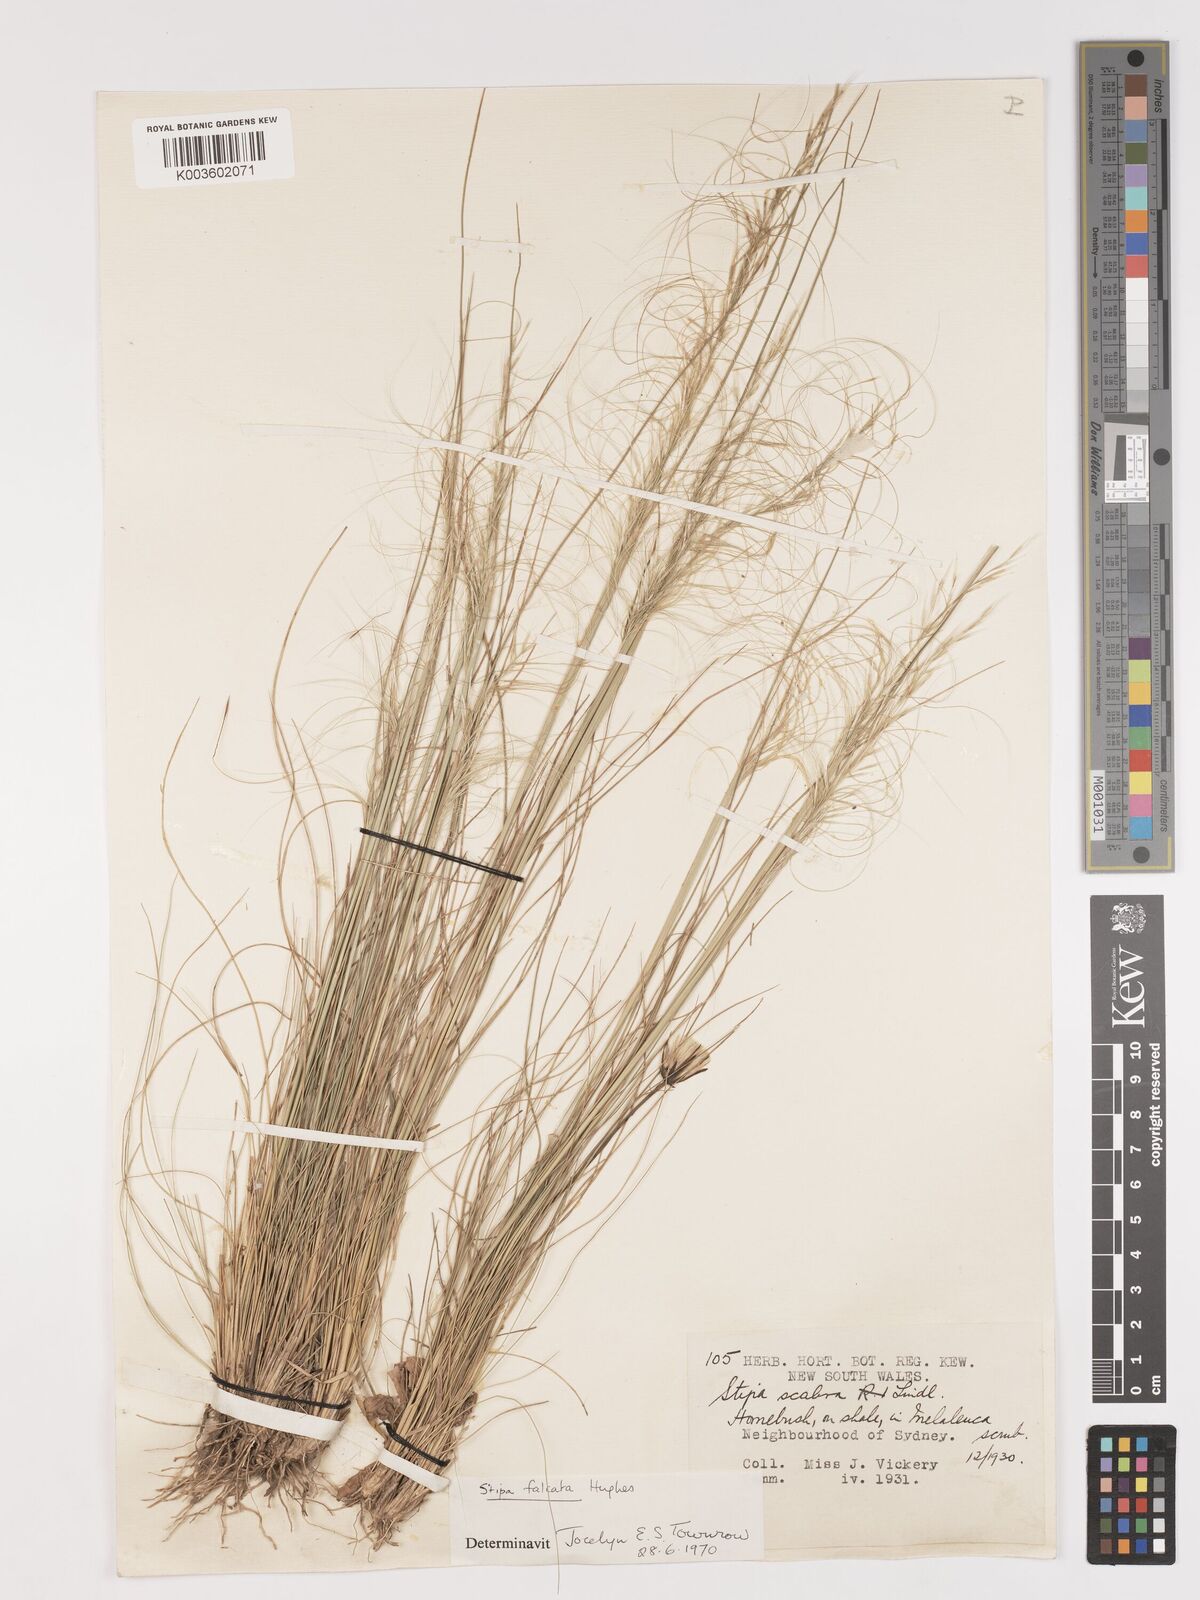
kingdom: Plantae
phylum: Tracheophyta
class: Liliopsida
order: Poales
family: Poaceae
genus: Austrostipa
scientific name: Austrostipa scabra
